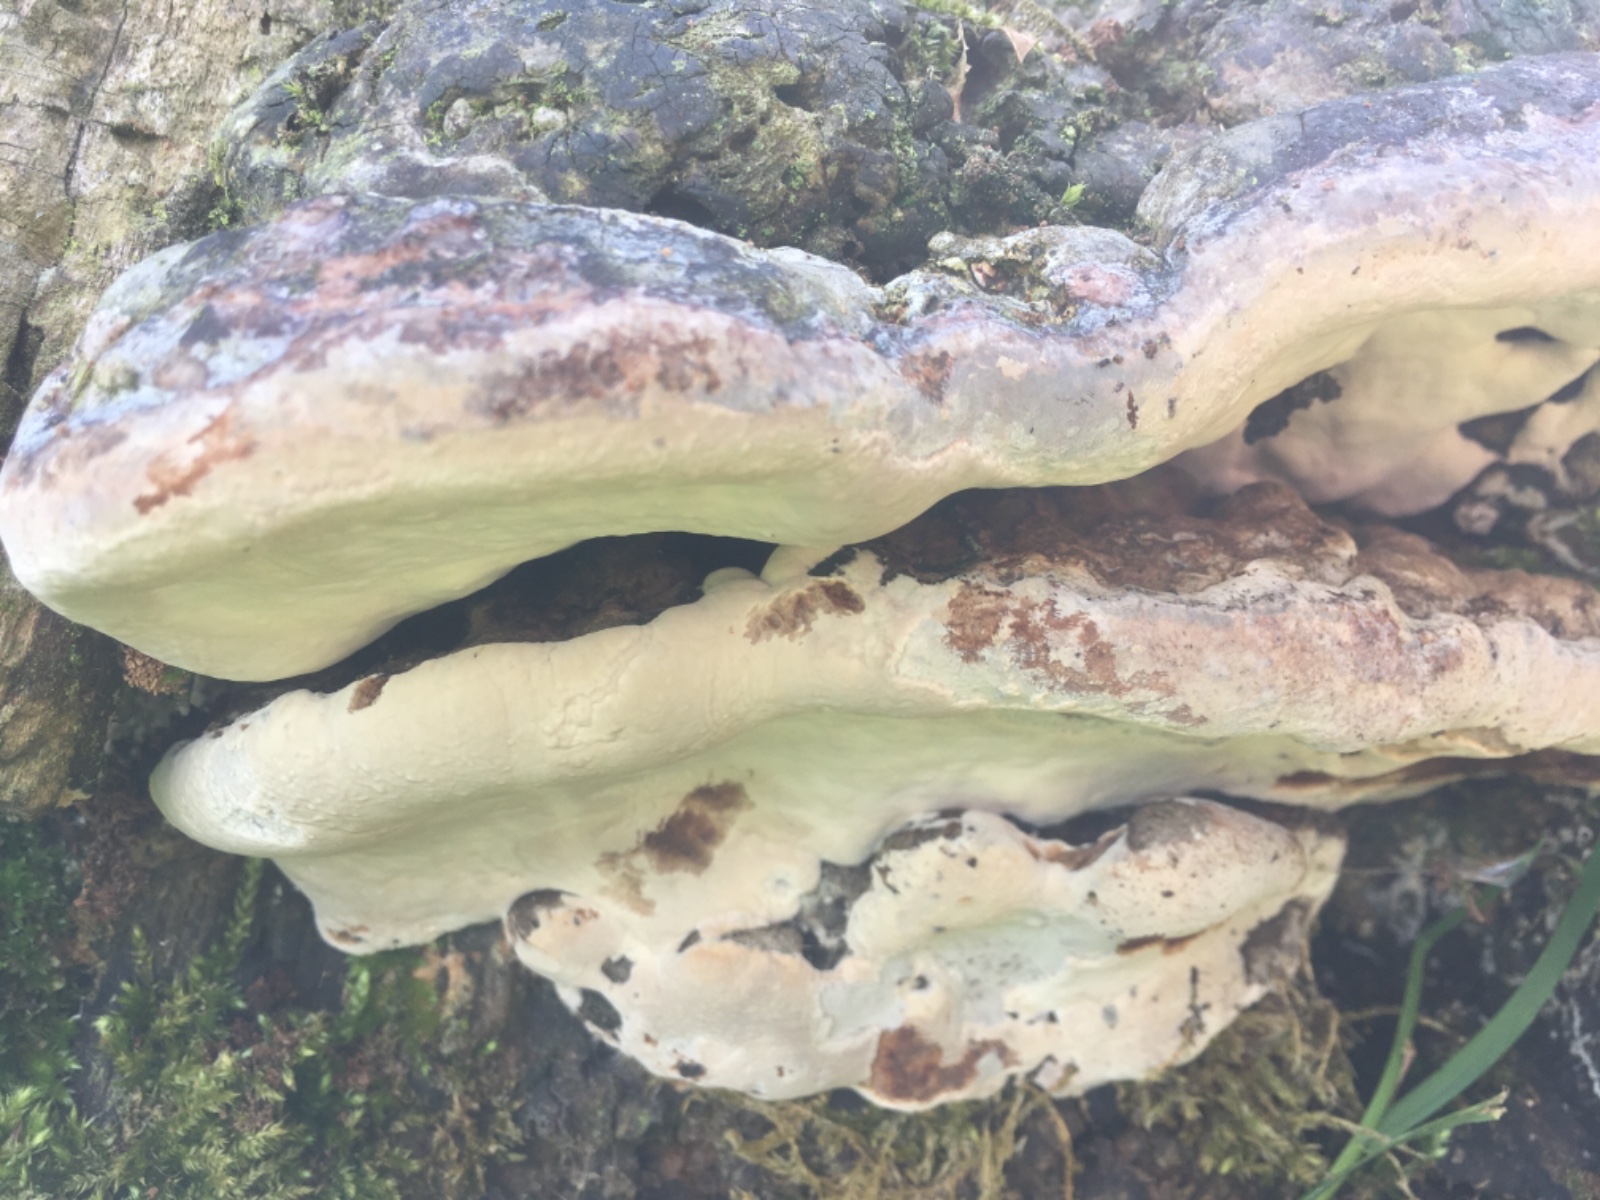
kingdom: Fungi
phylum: Basidiomycota
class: Agaricomycetes
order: Polyporales
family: Polyporaceae
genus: Ganoderma
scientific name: Ganoderma pfeifferi
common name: kobberrød lakporesvamp
